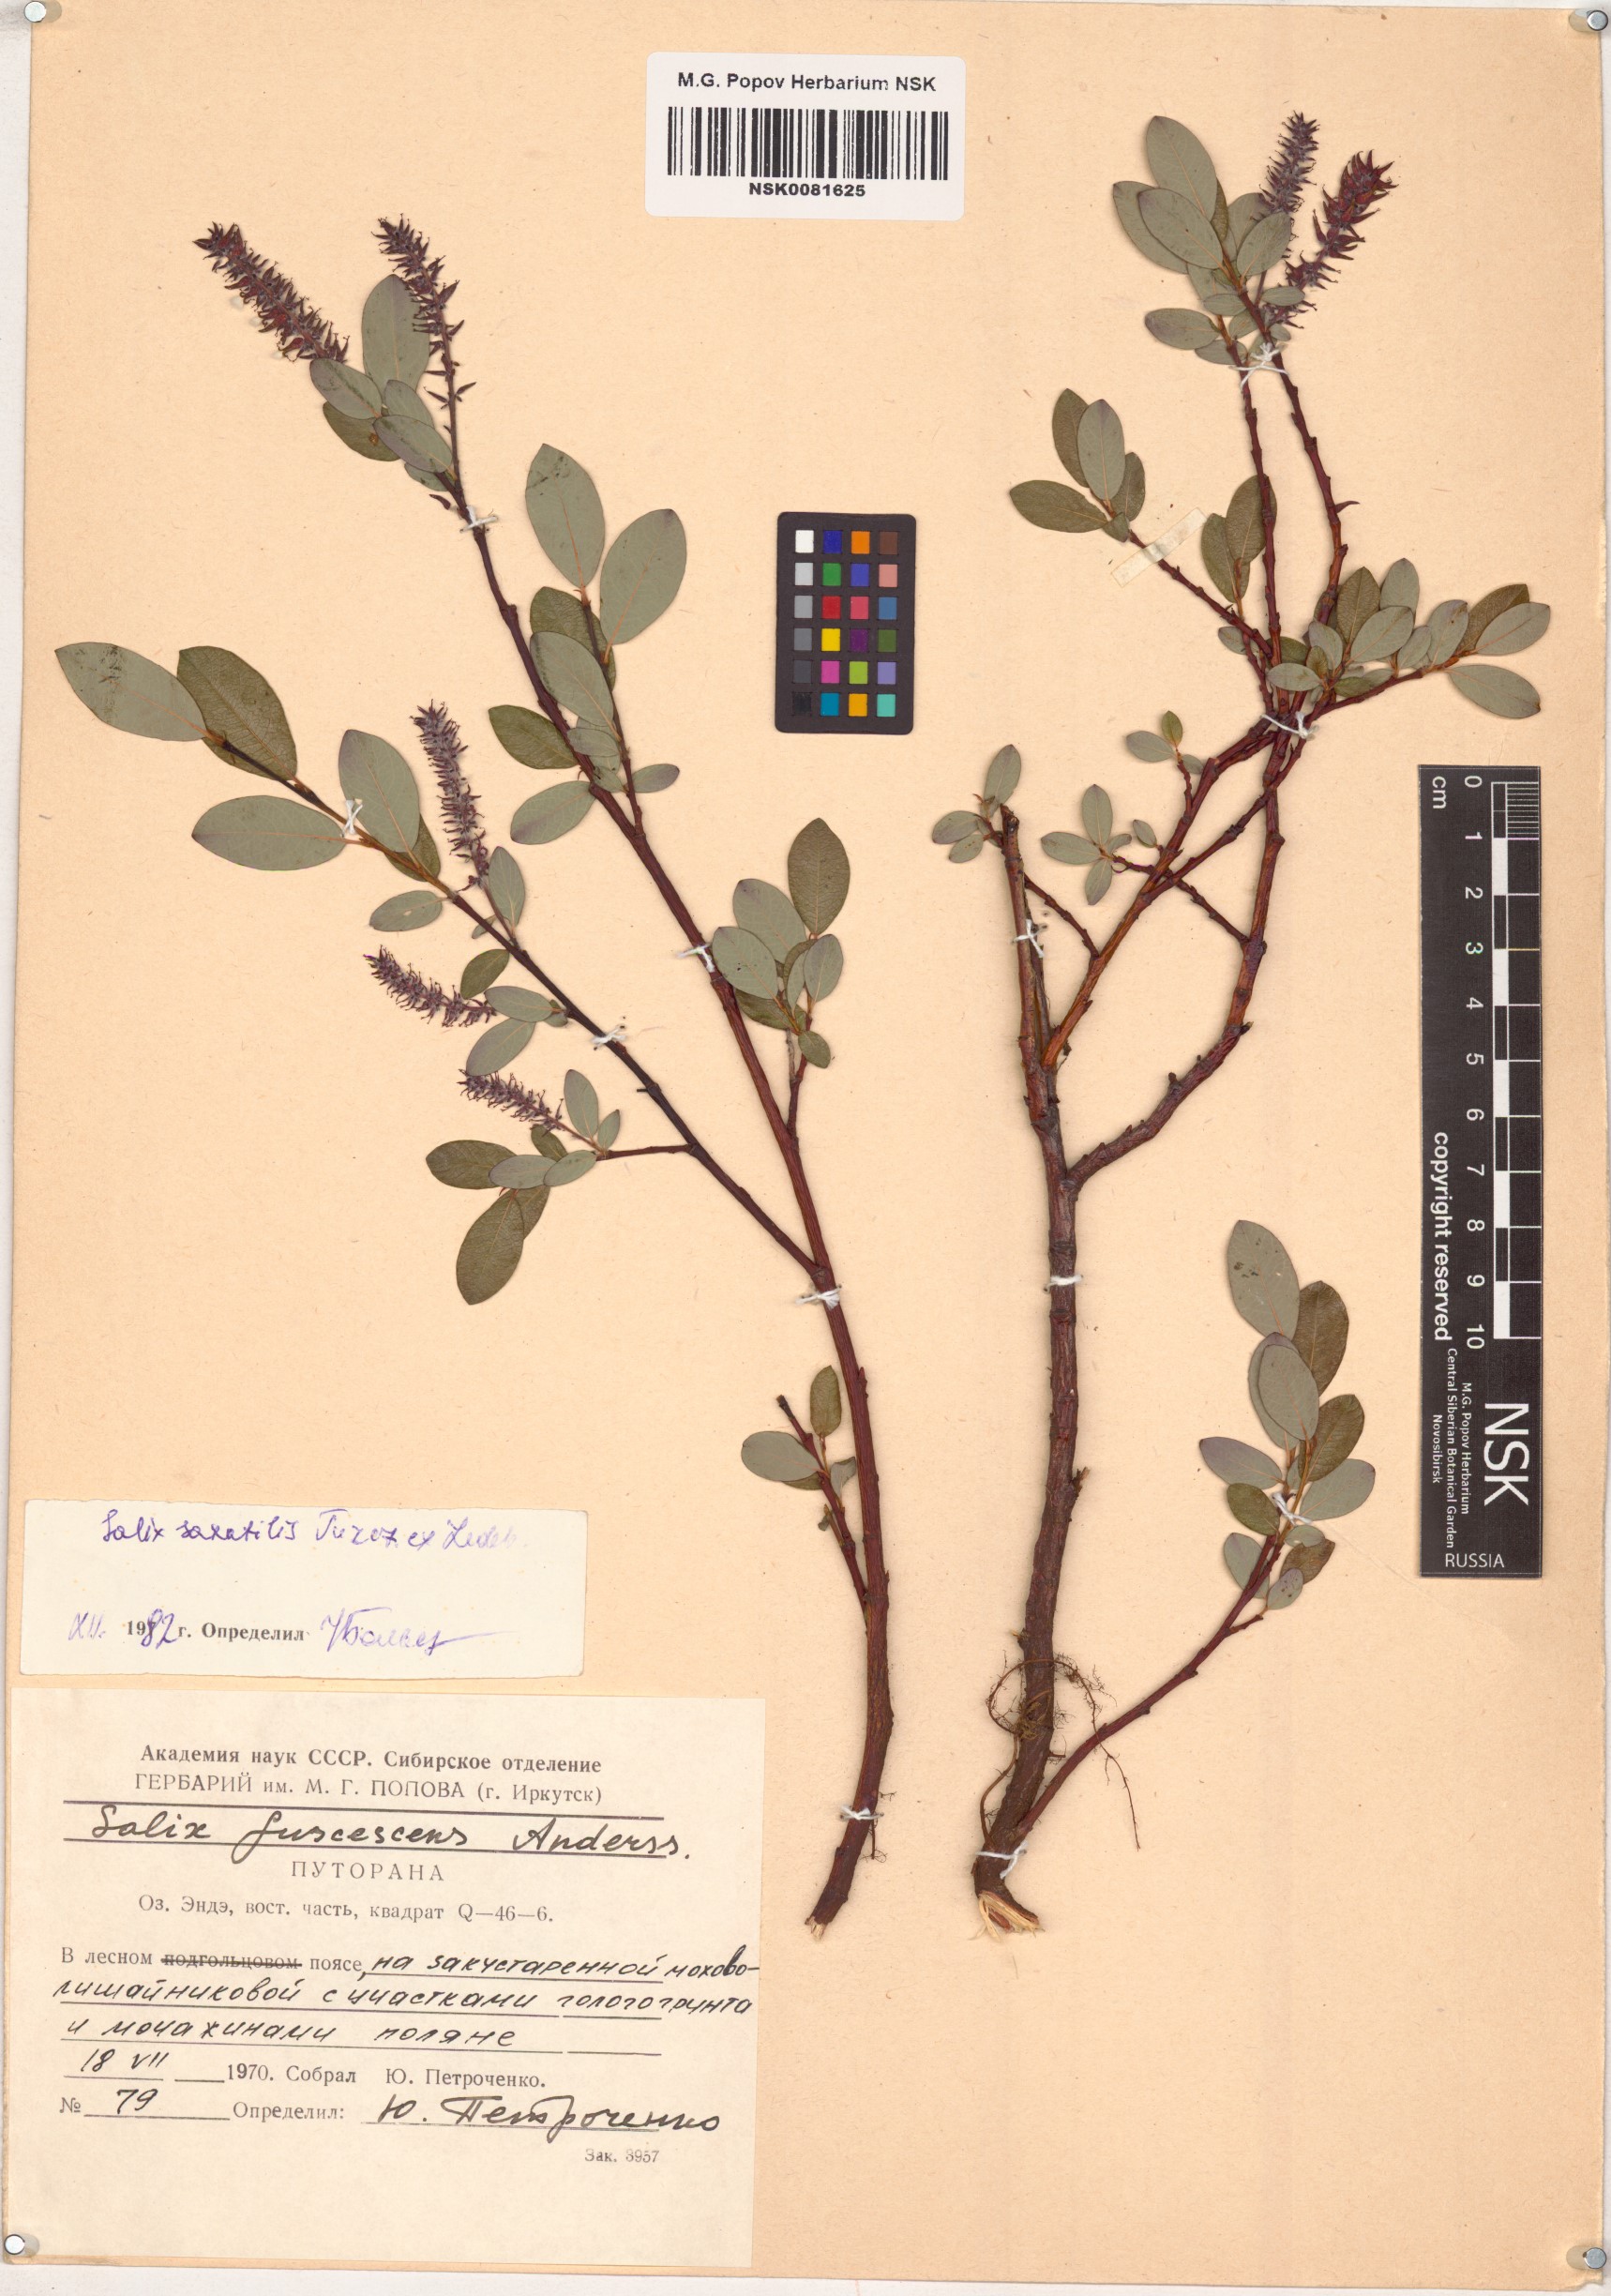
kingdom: Plantae
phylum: Tracheophyta
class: Magnoliopsida
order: Malpighiales
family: Salicaceae
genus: Salix
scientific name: Salix saxatilis
